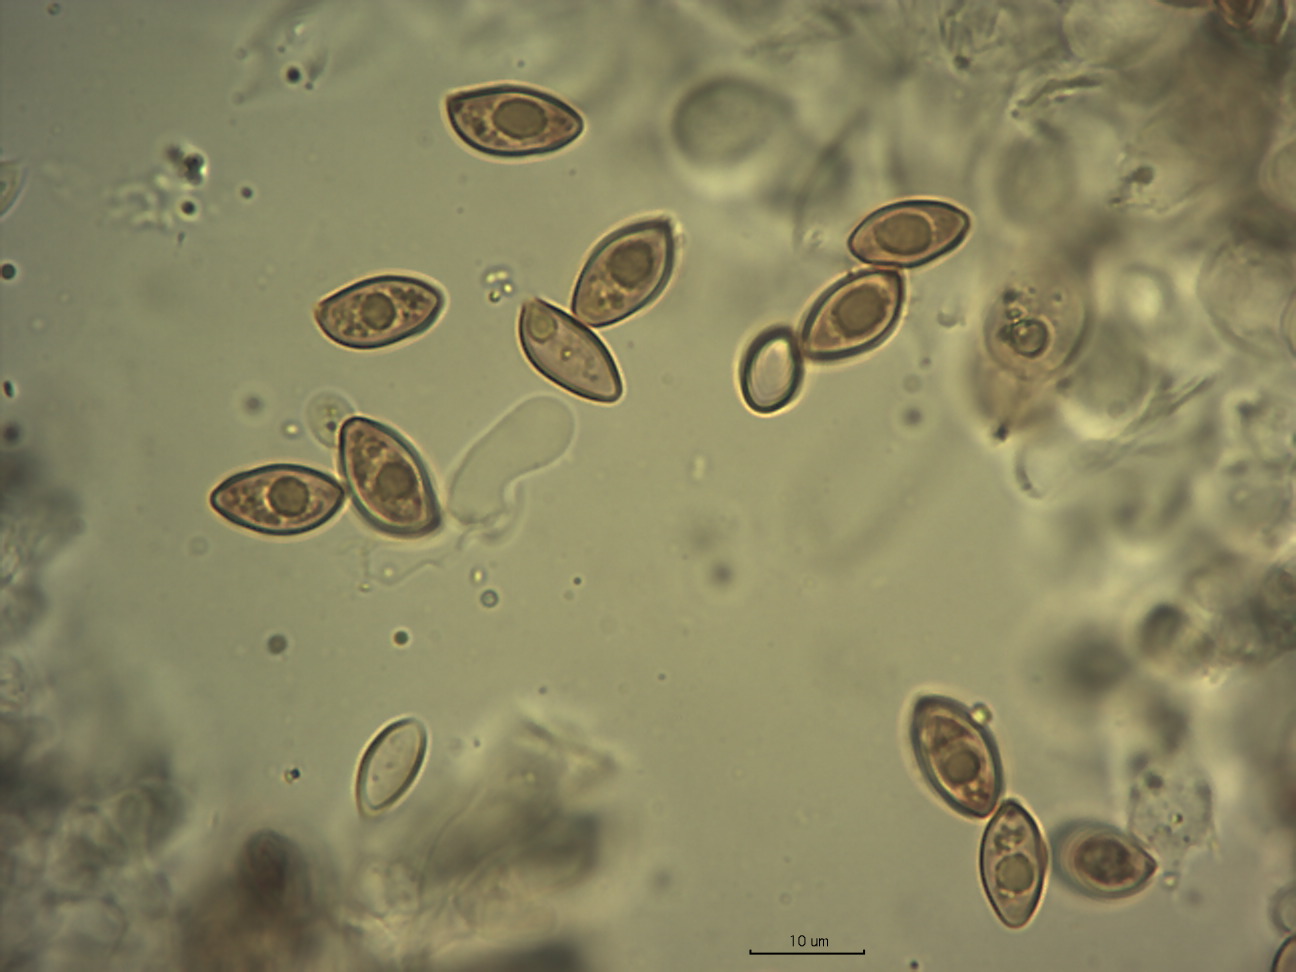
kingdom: Fungi
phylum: Basidiomycota
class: Agaricomycetes
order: Agaricales
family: Hymenogastraceae
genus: Galerina
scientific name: Galerina allospora
